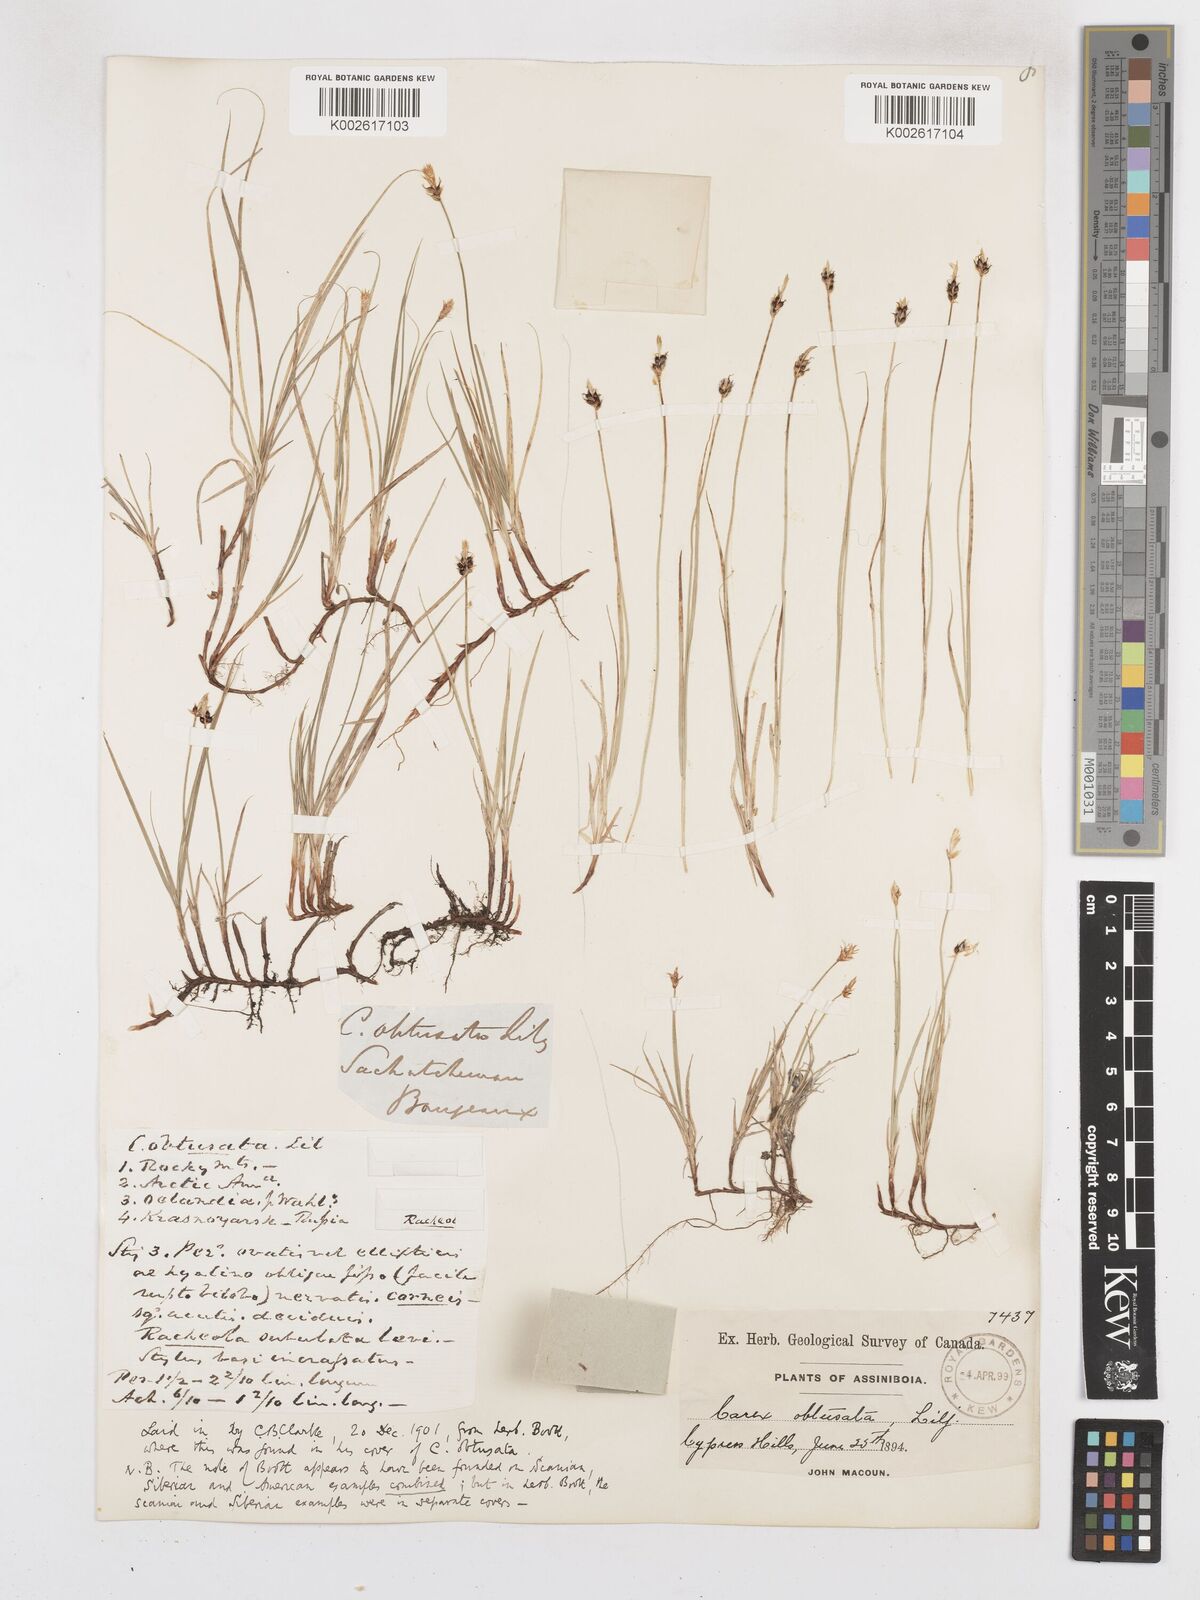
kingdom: Plantae
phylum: Tracheophyta
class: Liliopsida
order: Poales
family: Cyperaceae
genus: Carex
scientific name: Carex obtusata
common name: Blunt sedge
